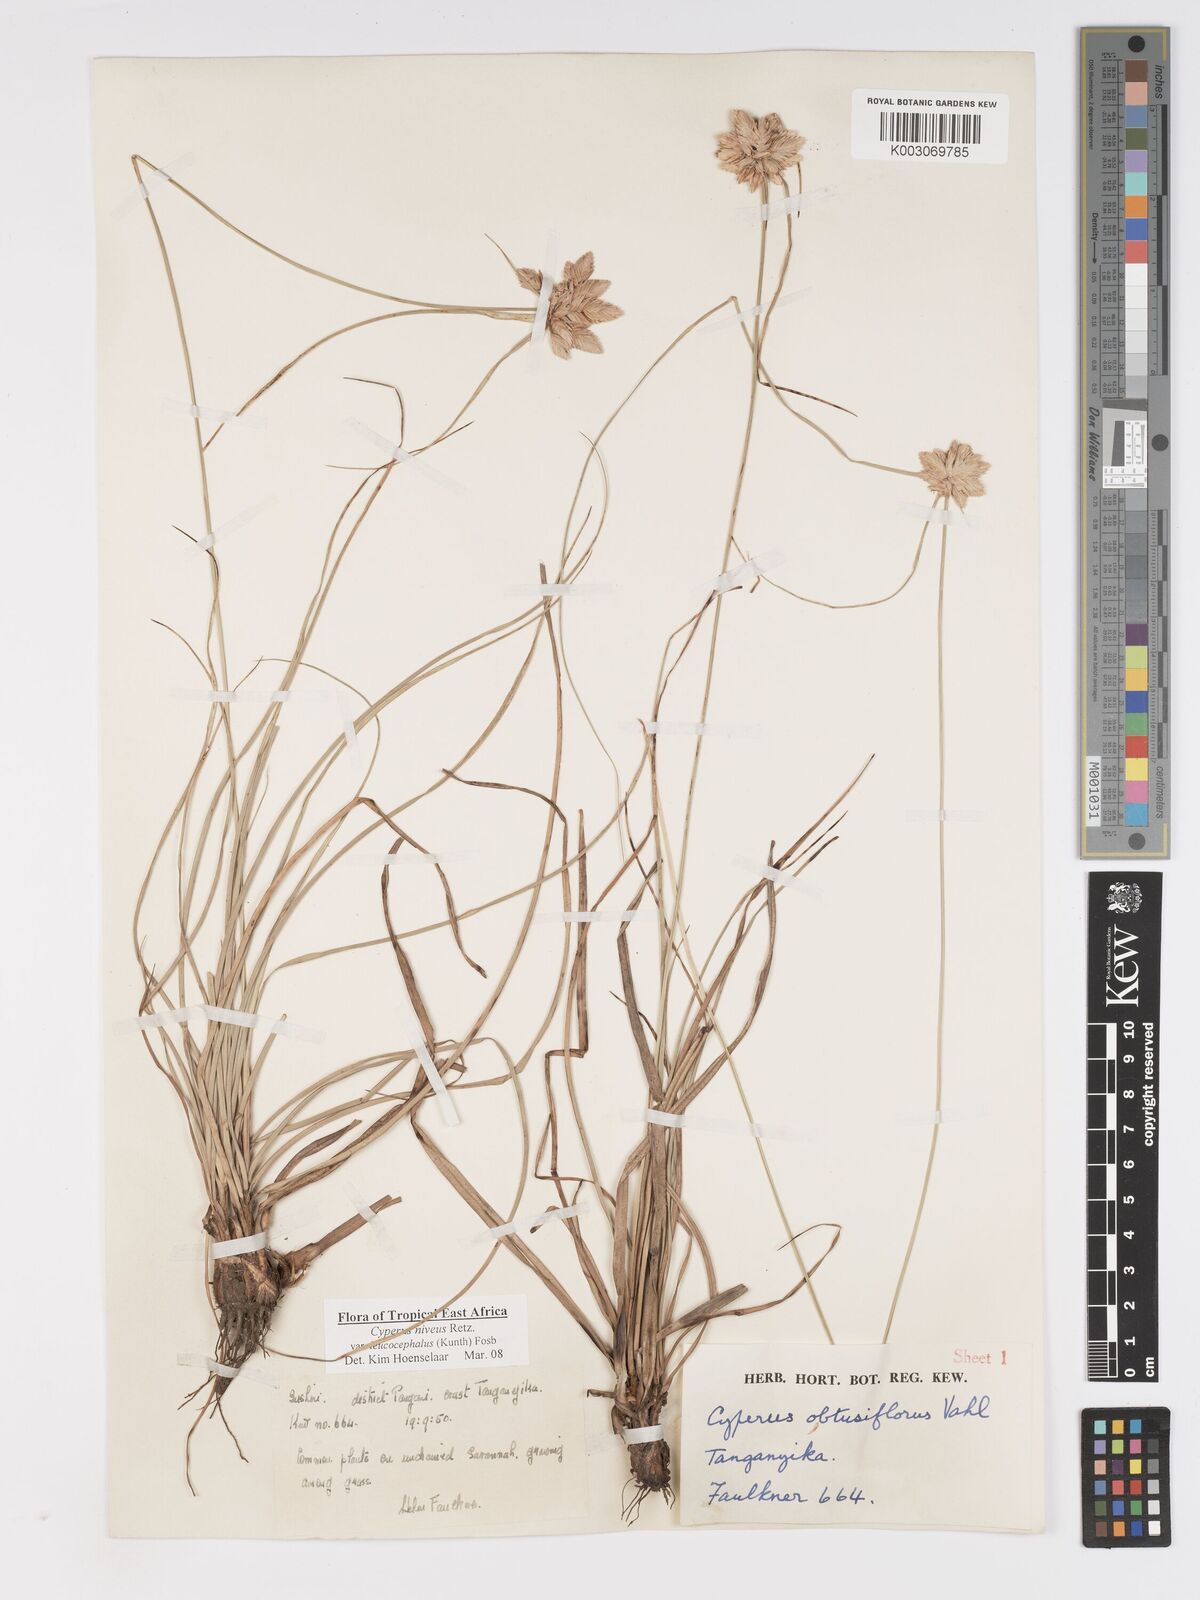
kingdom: Plantae
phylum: Tracheophyta
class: Liliopsida
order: Poales
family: Cyperaceae
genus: Cyperus
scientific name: Cyperus niveus
